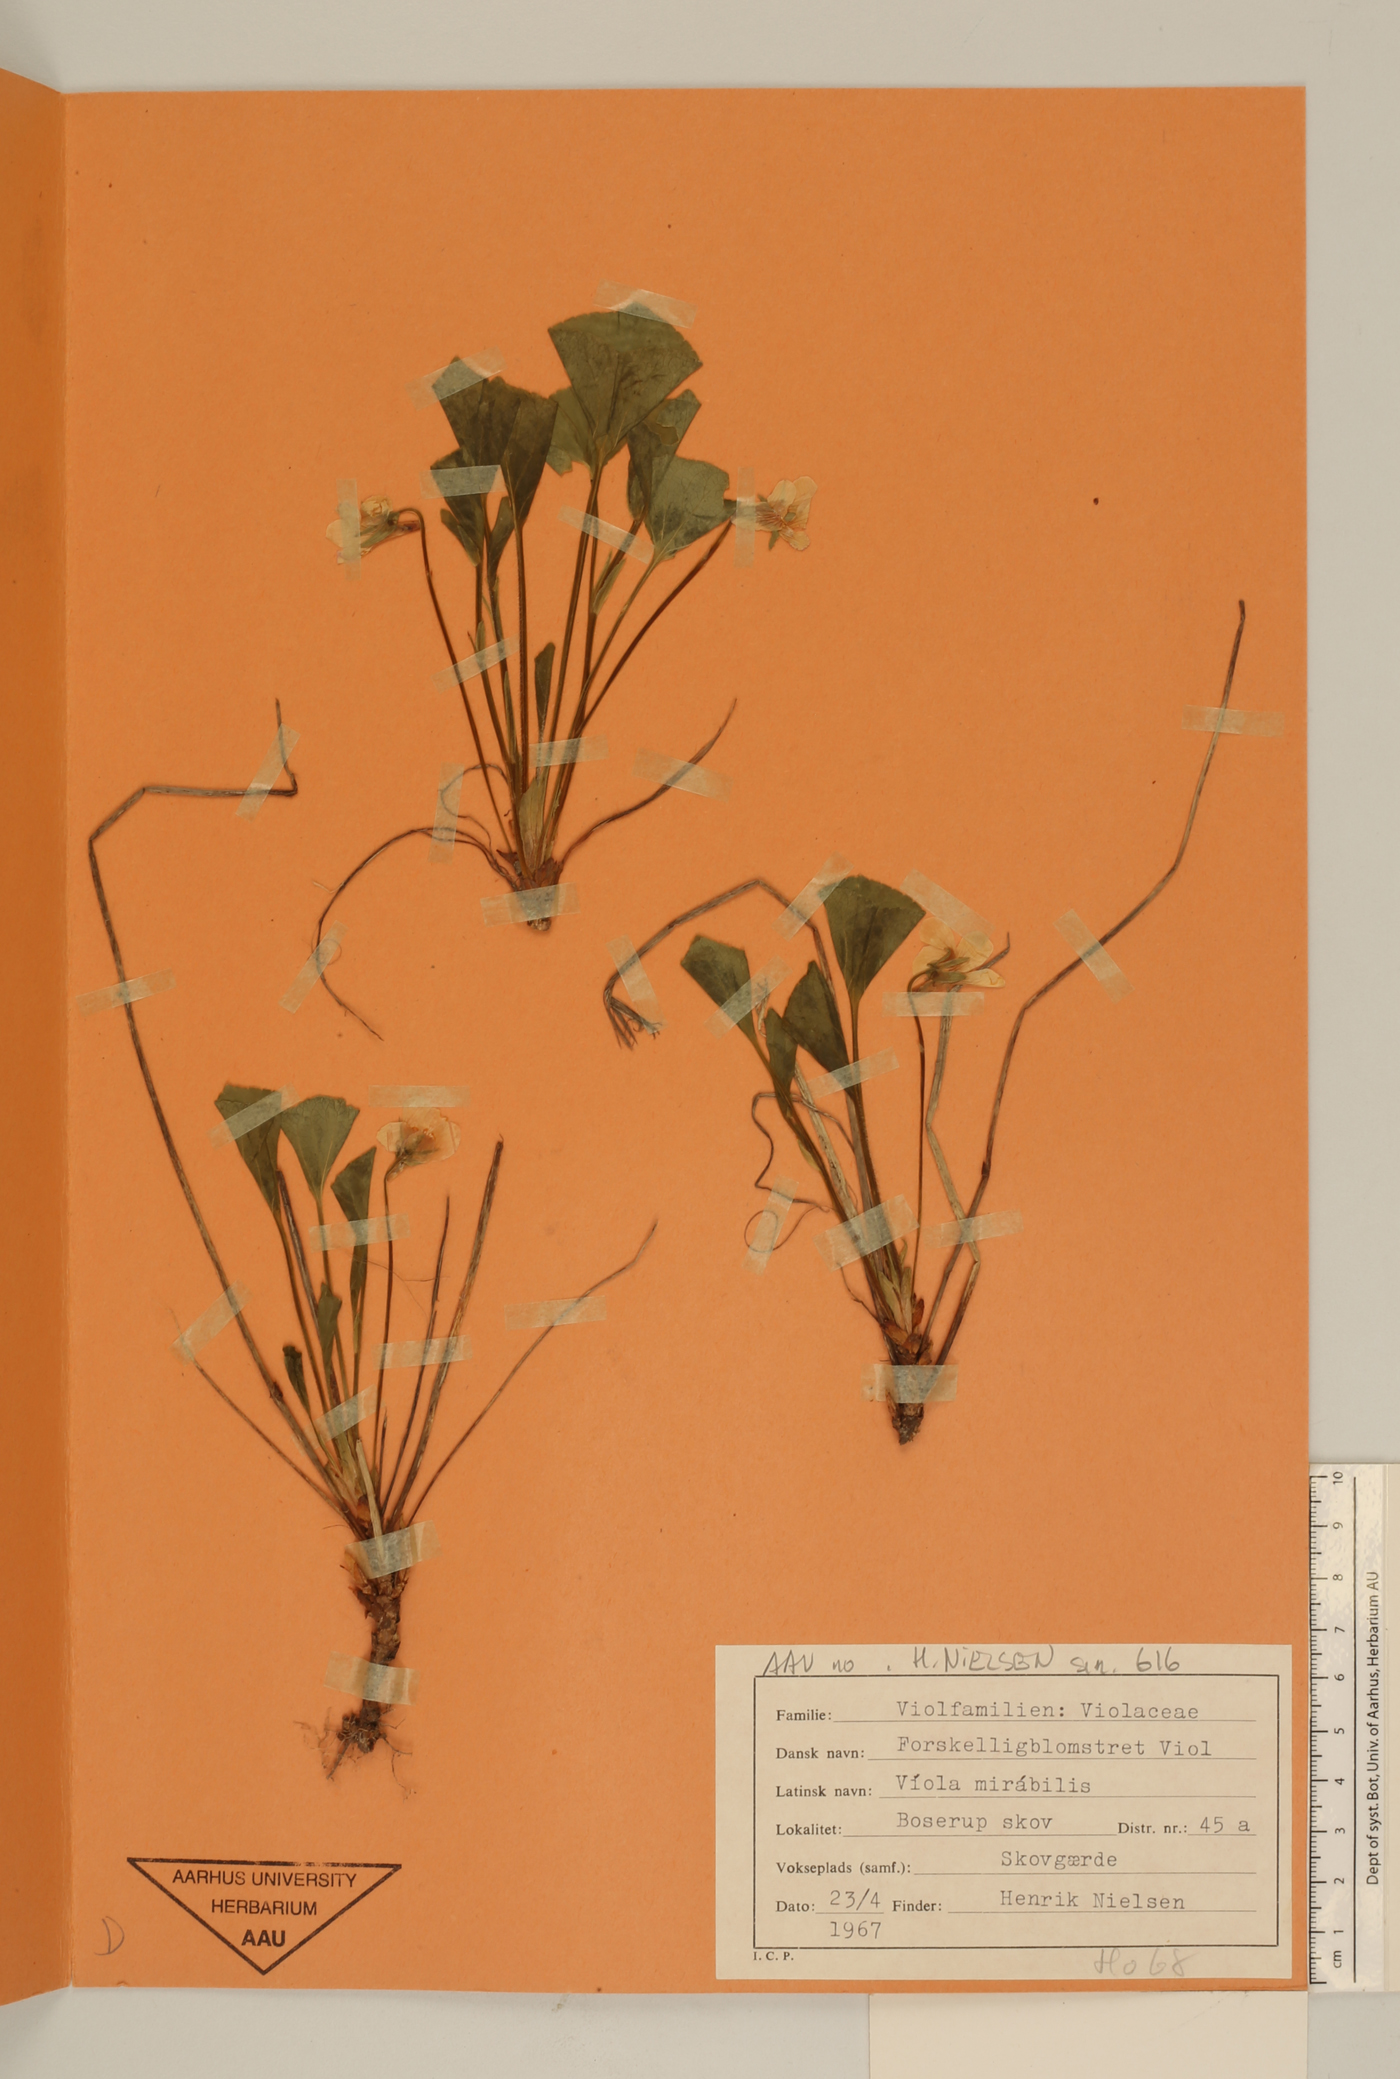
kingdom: Plantae
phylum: Tracheophyta
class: Magnoliopsida
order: Malpighiales
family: Violaceae
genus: Viola
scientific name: Viola mirabilis
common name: Wonder violet
